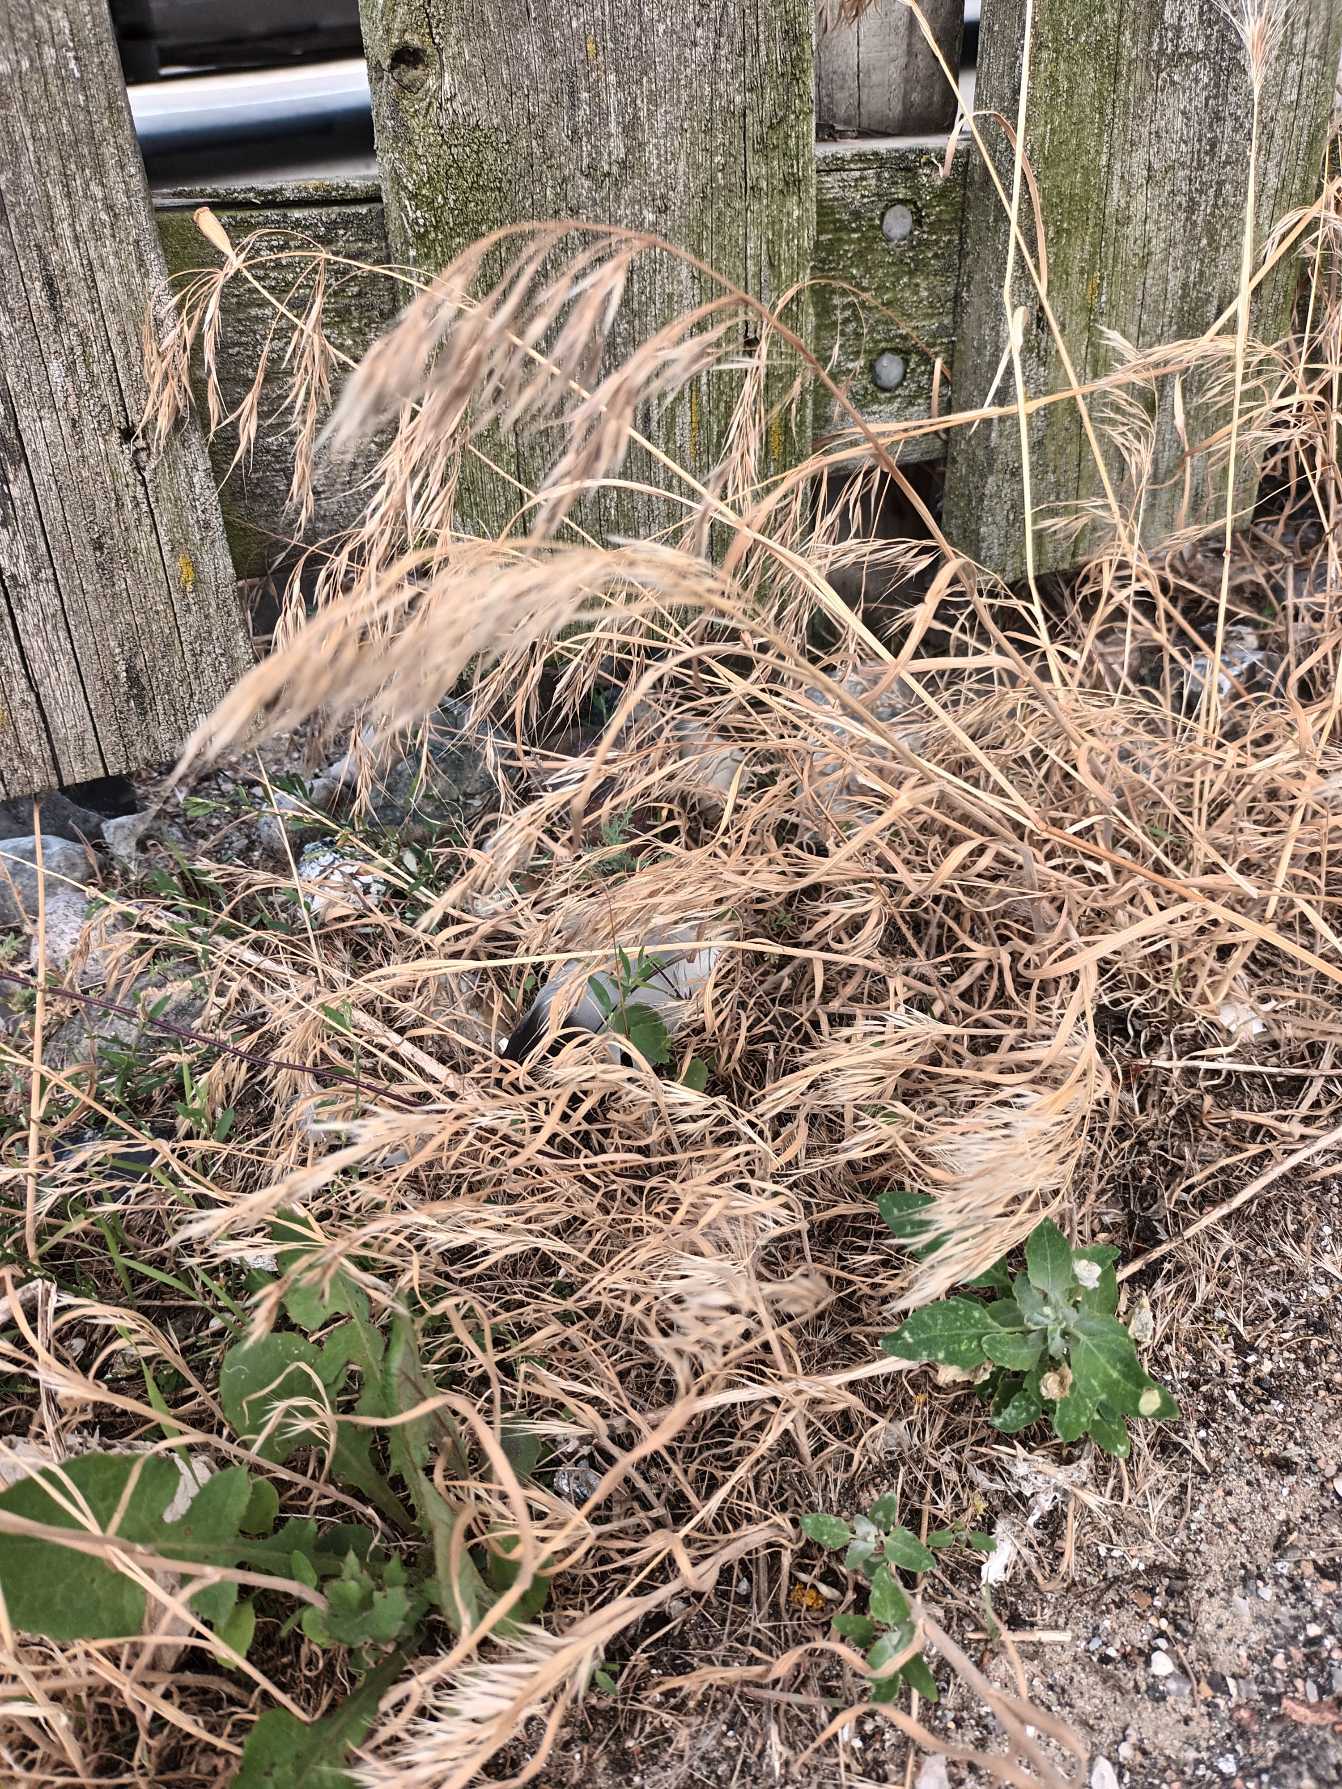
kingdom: Plantae
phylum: Tracheophyta
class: Liliopsida
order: Poales
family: Poaceae
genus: Bromus
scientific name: Bromus tectorum
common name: Tag-hejre
